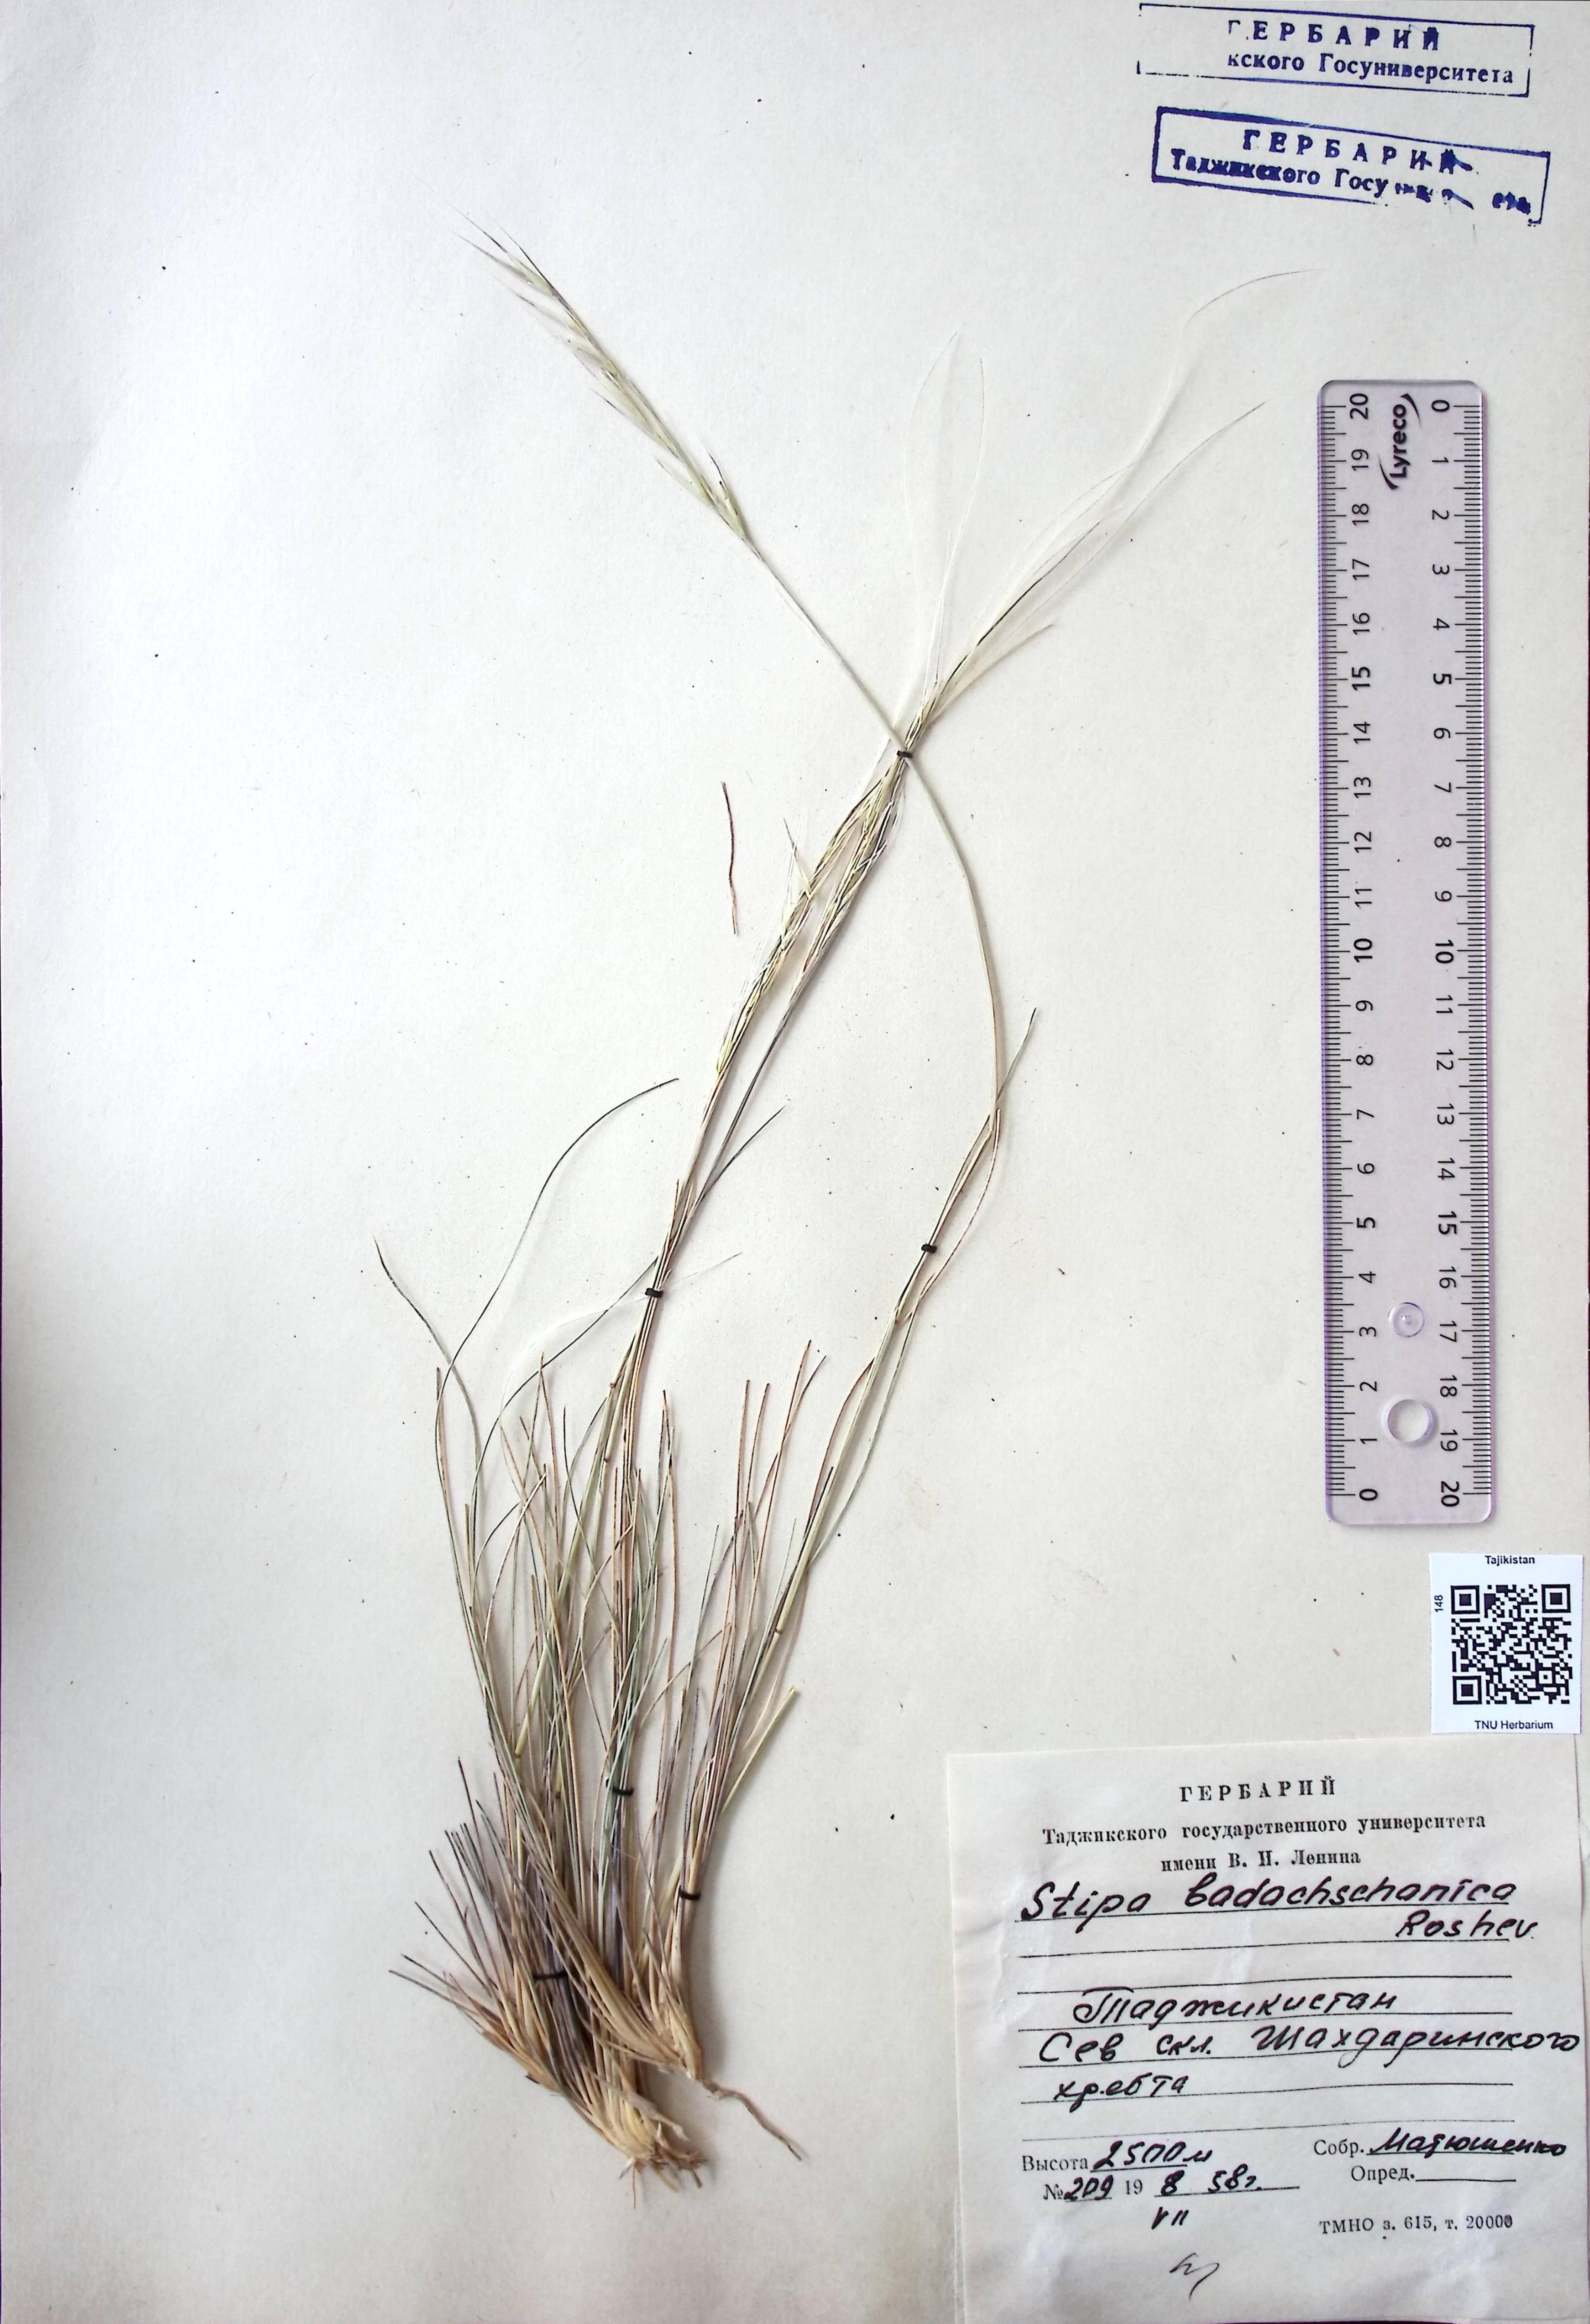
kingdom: Plantae
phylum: Tracheophyta
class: Liliopsida
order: Poales
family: Poaceae
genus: Stipa
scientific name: Stipa badachschanica
